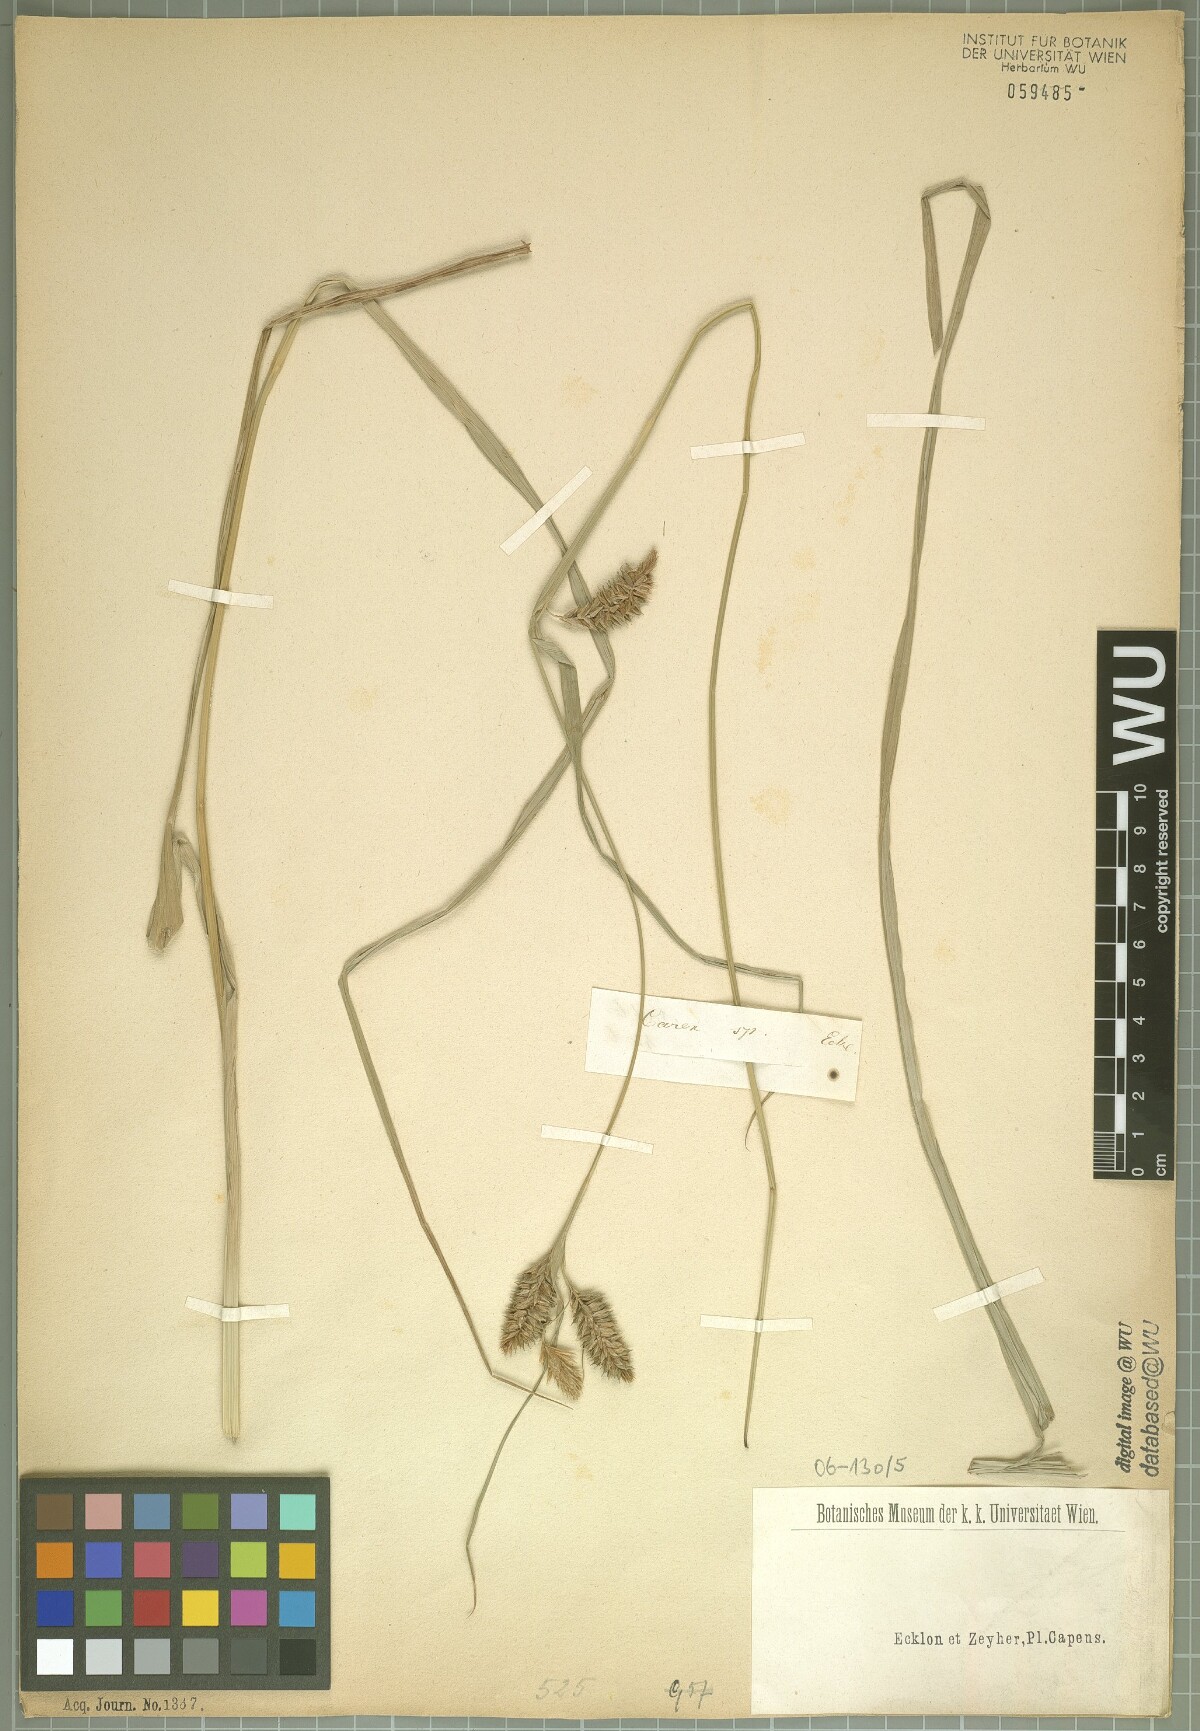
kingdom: Plantae
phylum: Tracheophyta
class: Liliopsida
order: Poales
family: Cyperaceae
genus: Carex
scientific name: Carex
